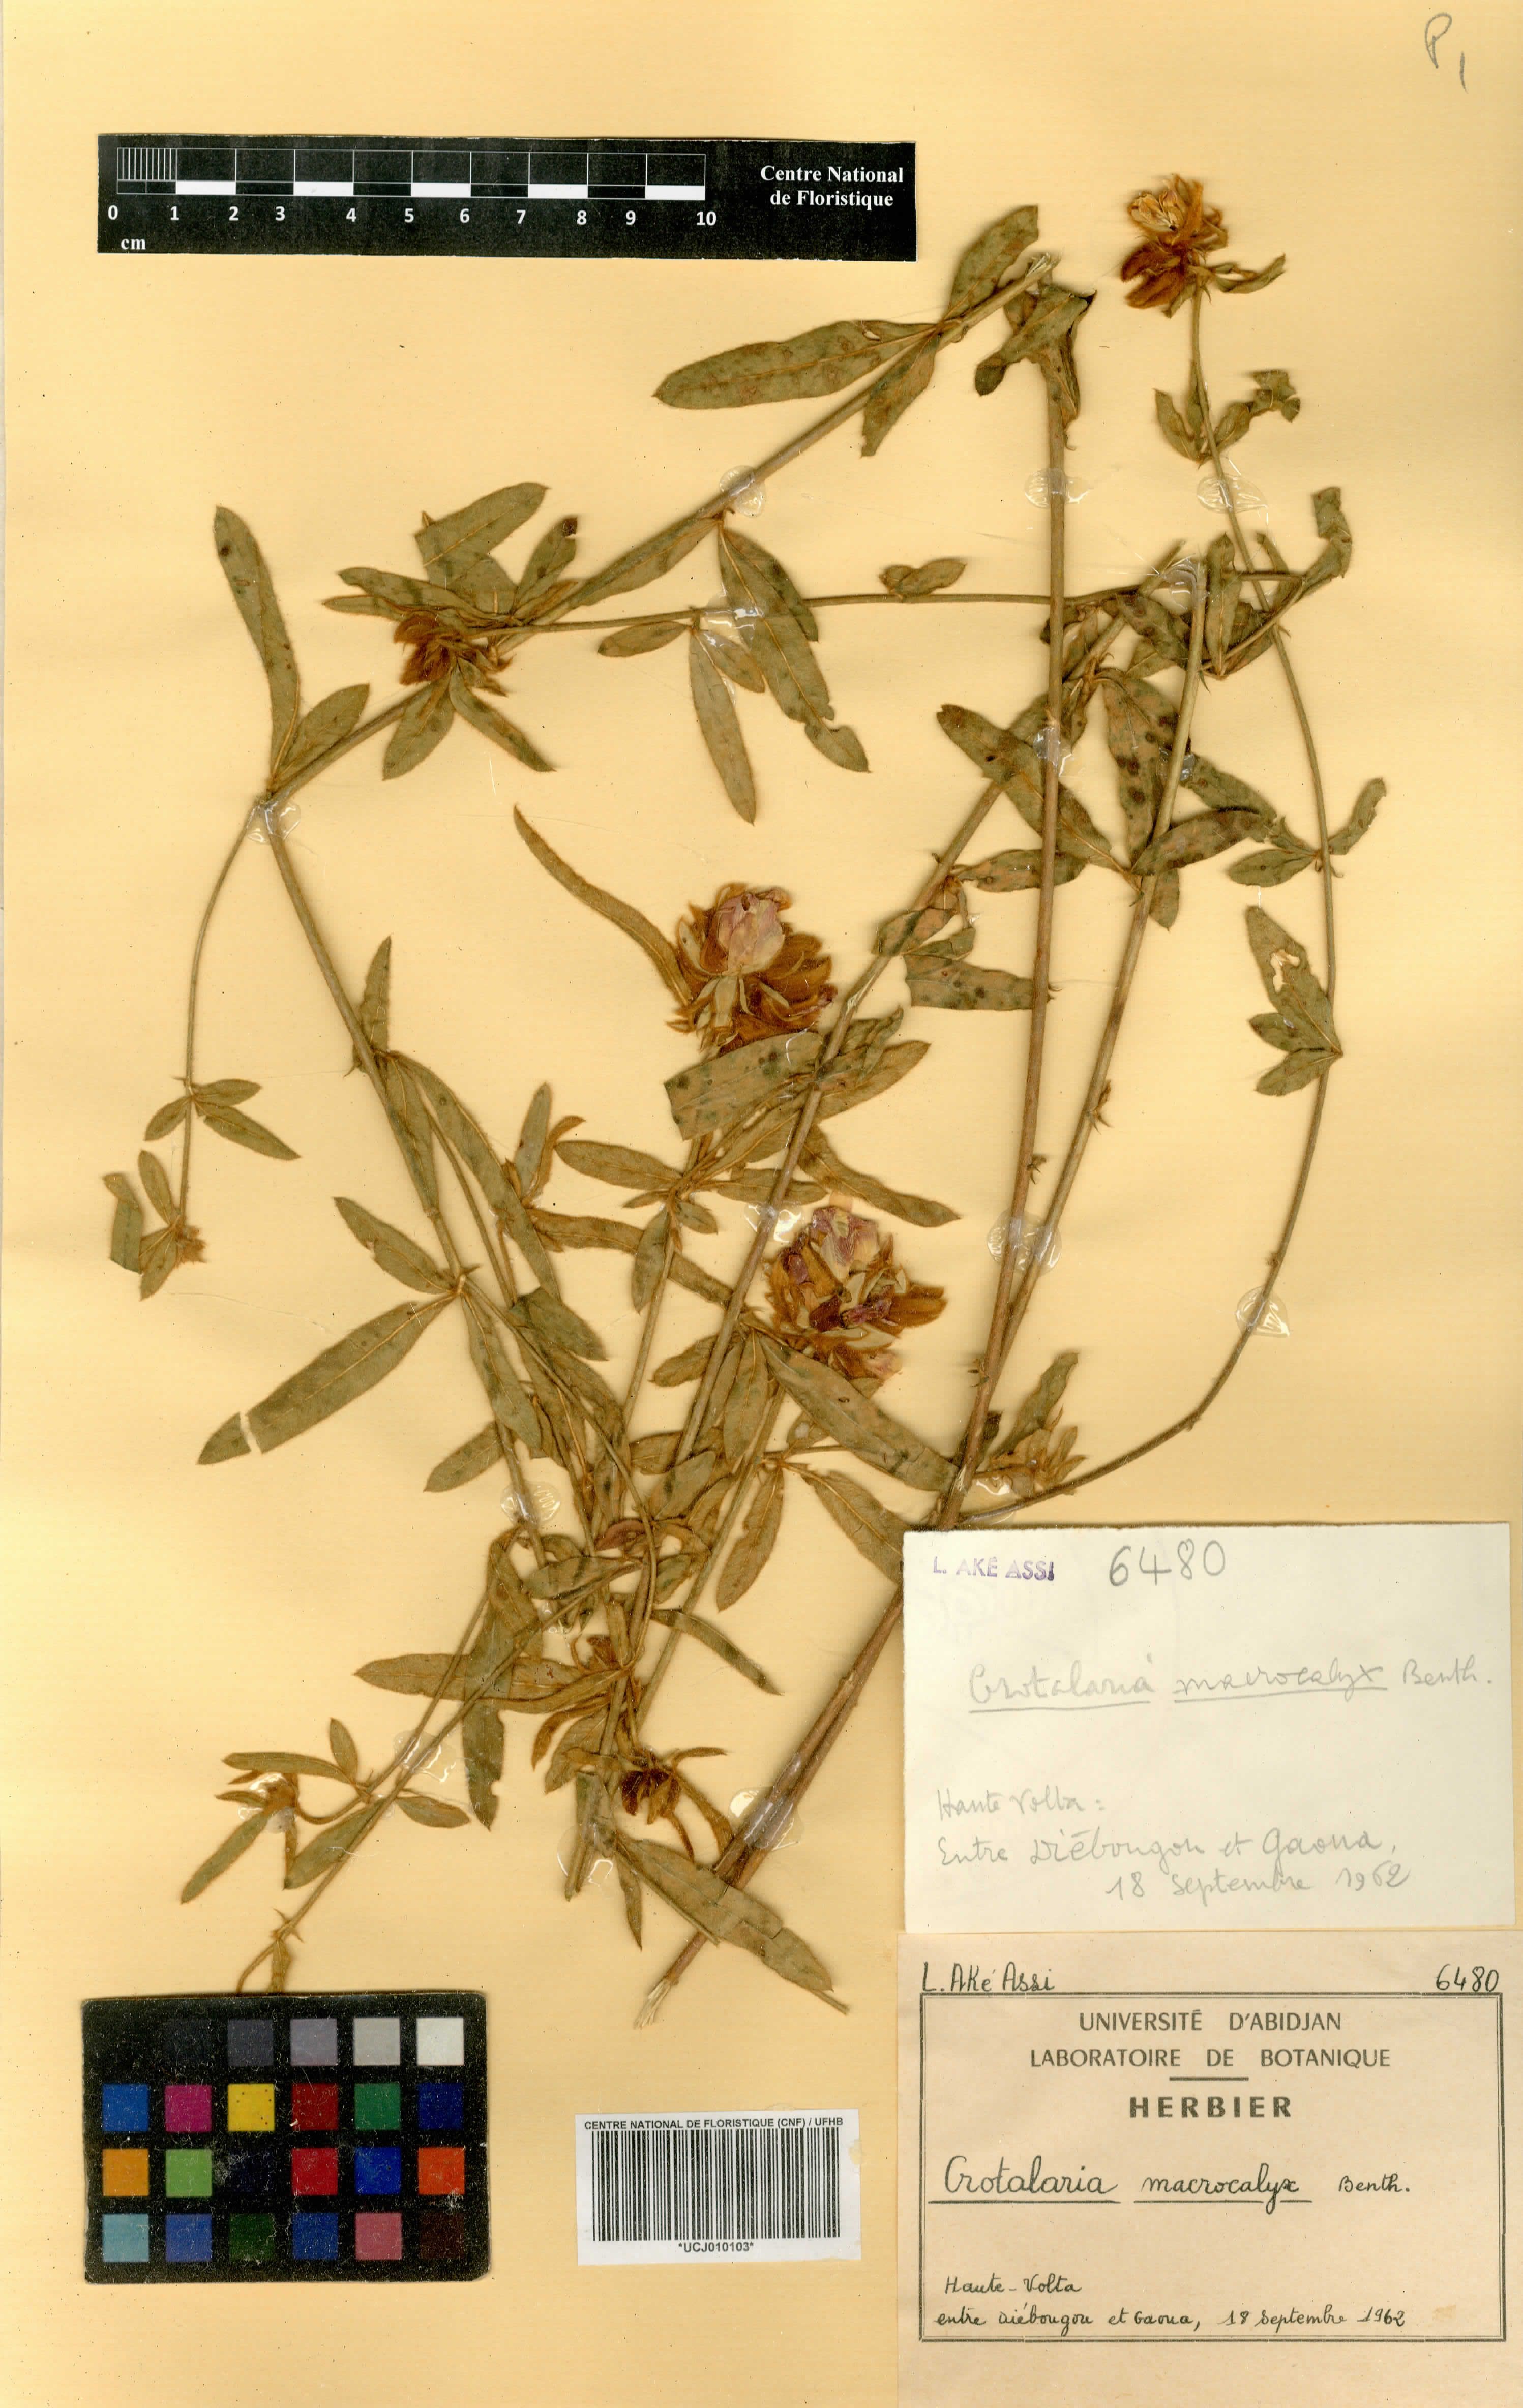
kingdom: Plantae
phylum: Tracheophyta
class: Magnoliopsida
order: Fabales
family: Fabaceae
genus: Crotalaria
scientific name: Crotalaria macrocalyx
